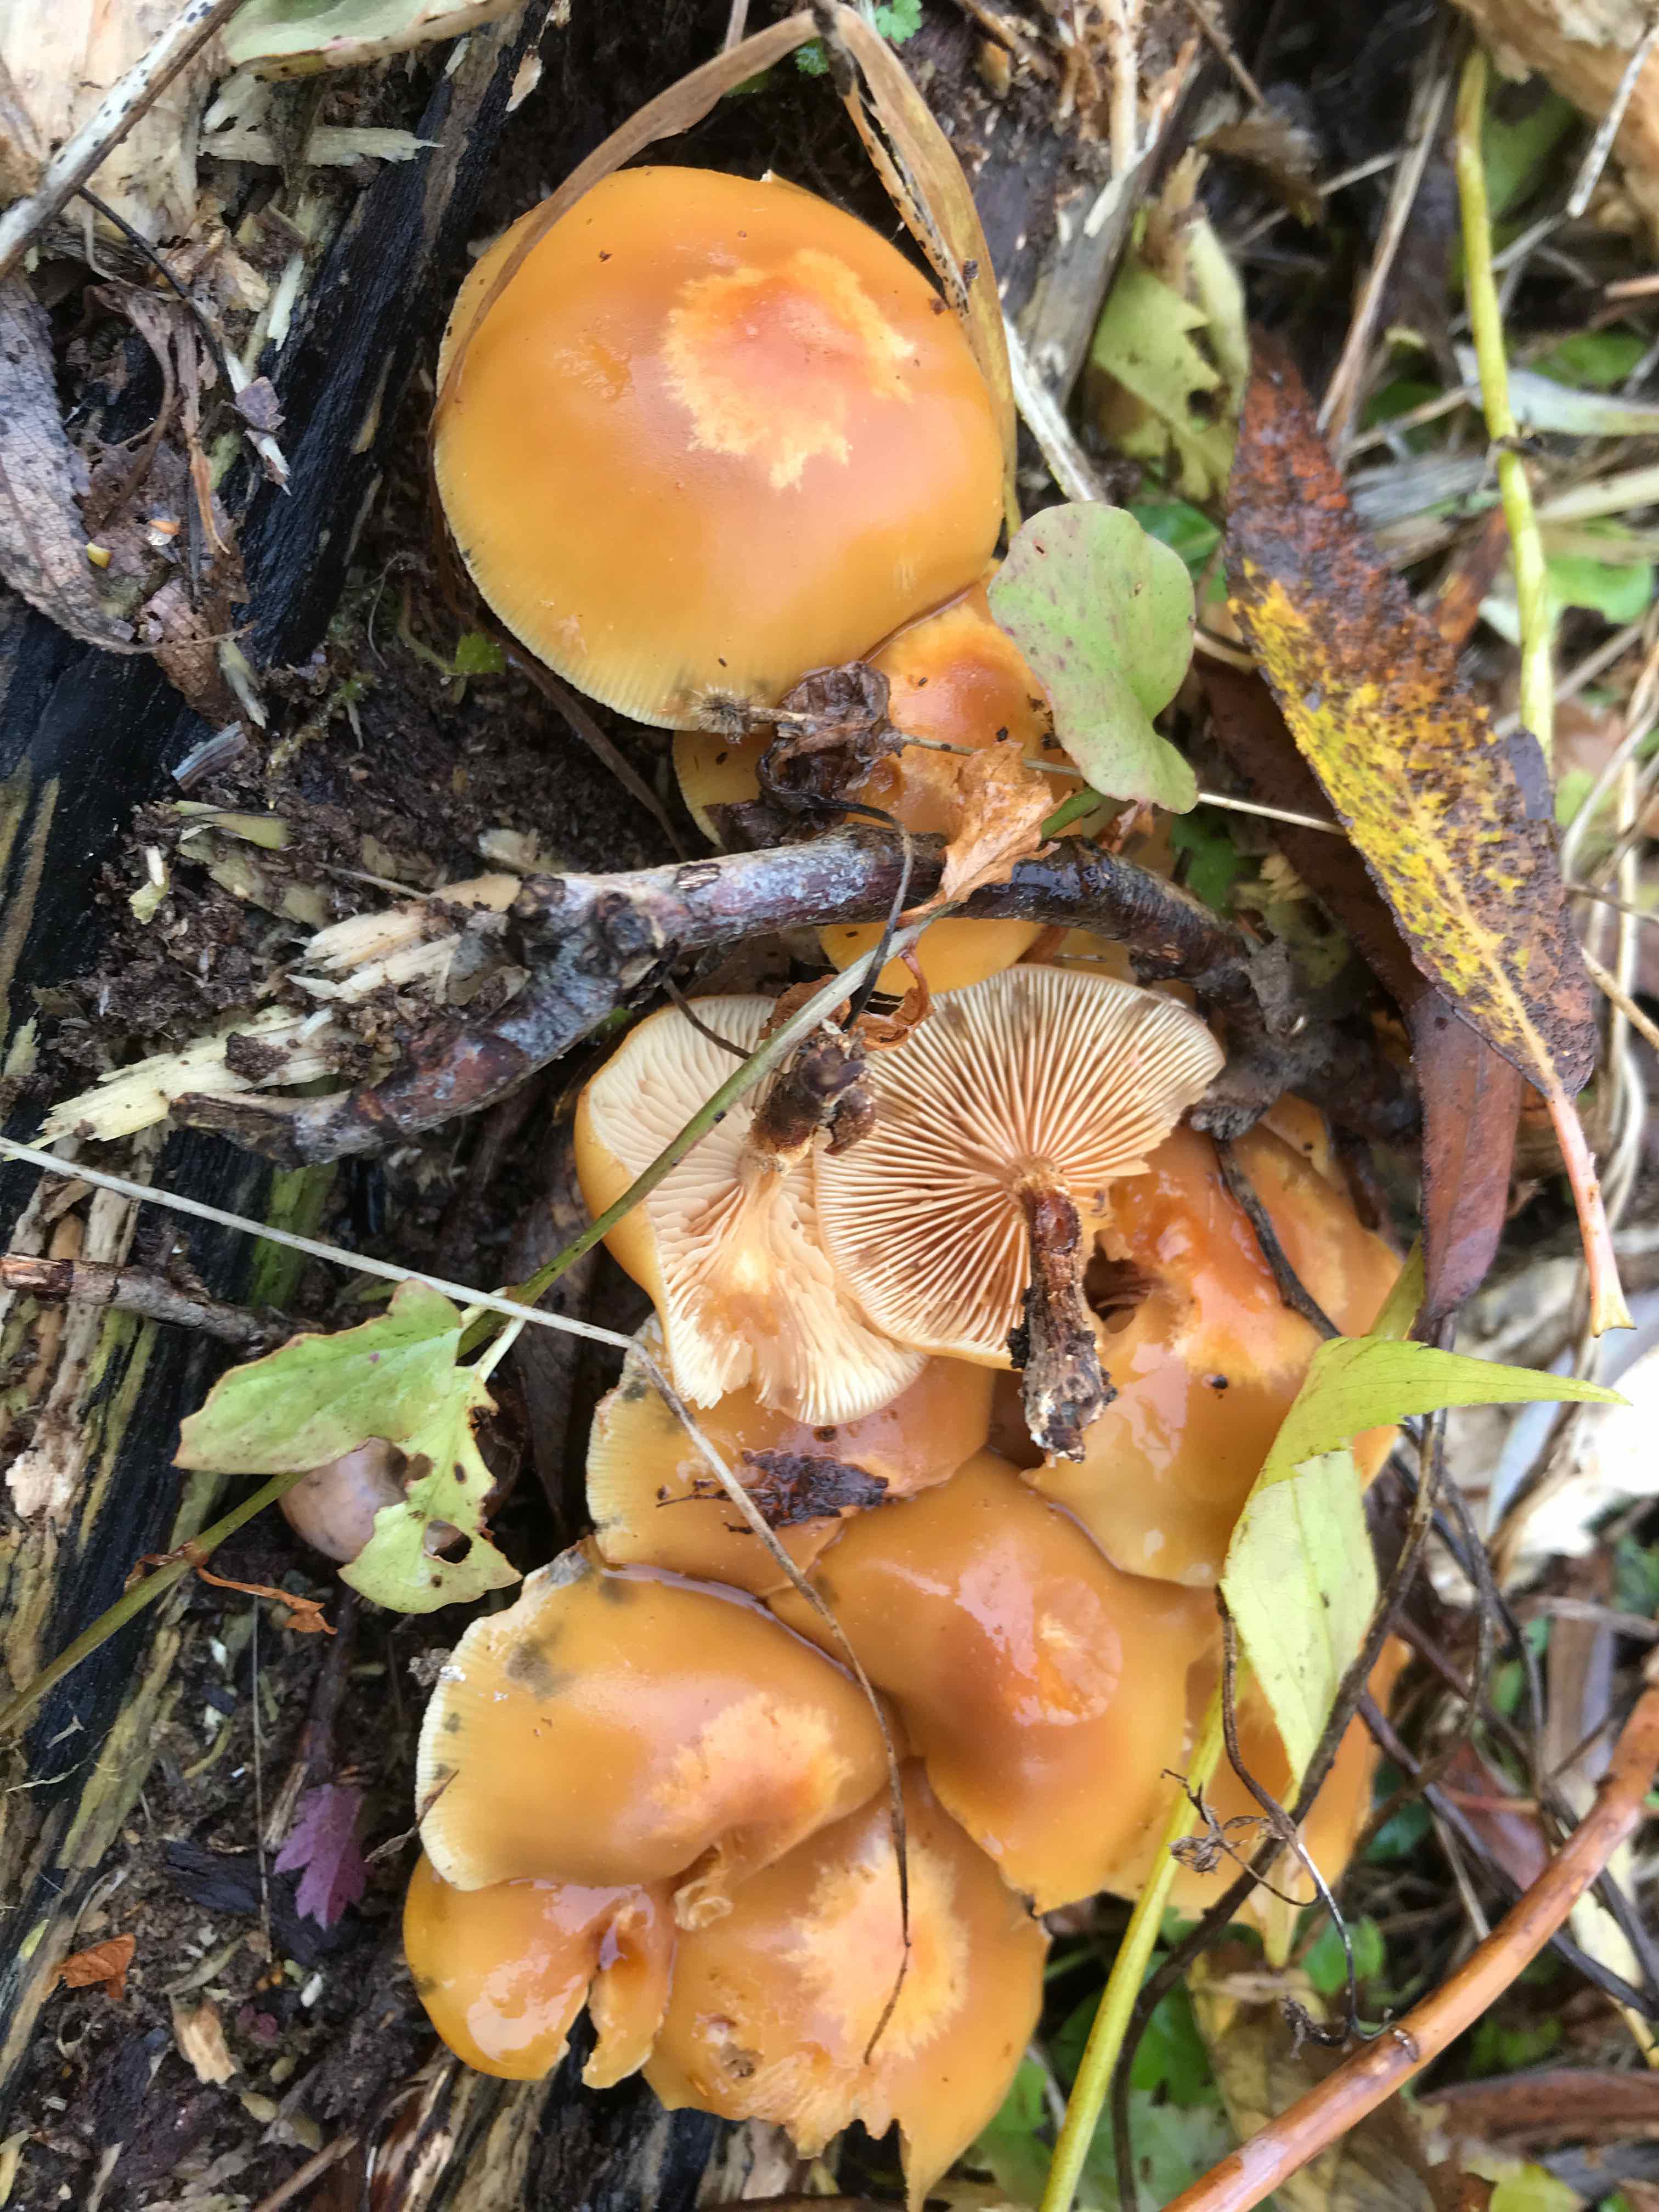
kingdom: Fungi
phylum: Basidiomycota
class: Agaricomycetes
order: Agaricales
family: Strophariaceae
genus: Kuehneromyces
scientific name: Kuehneromyces mutabilis
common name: foranderlig skælhat
